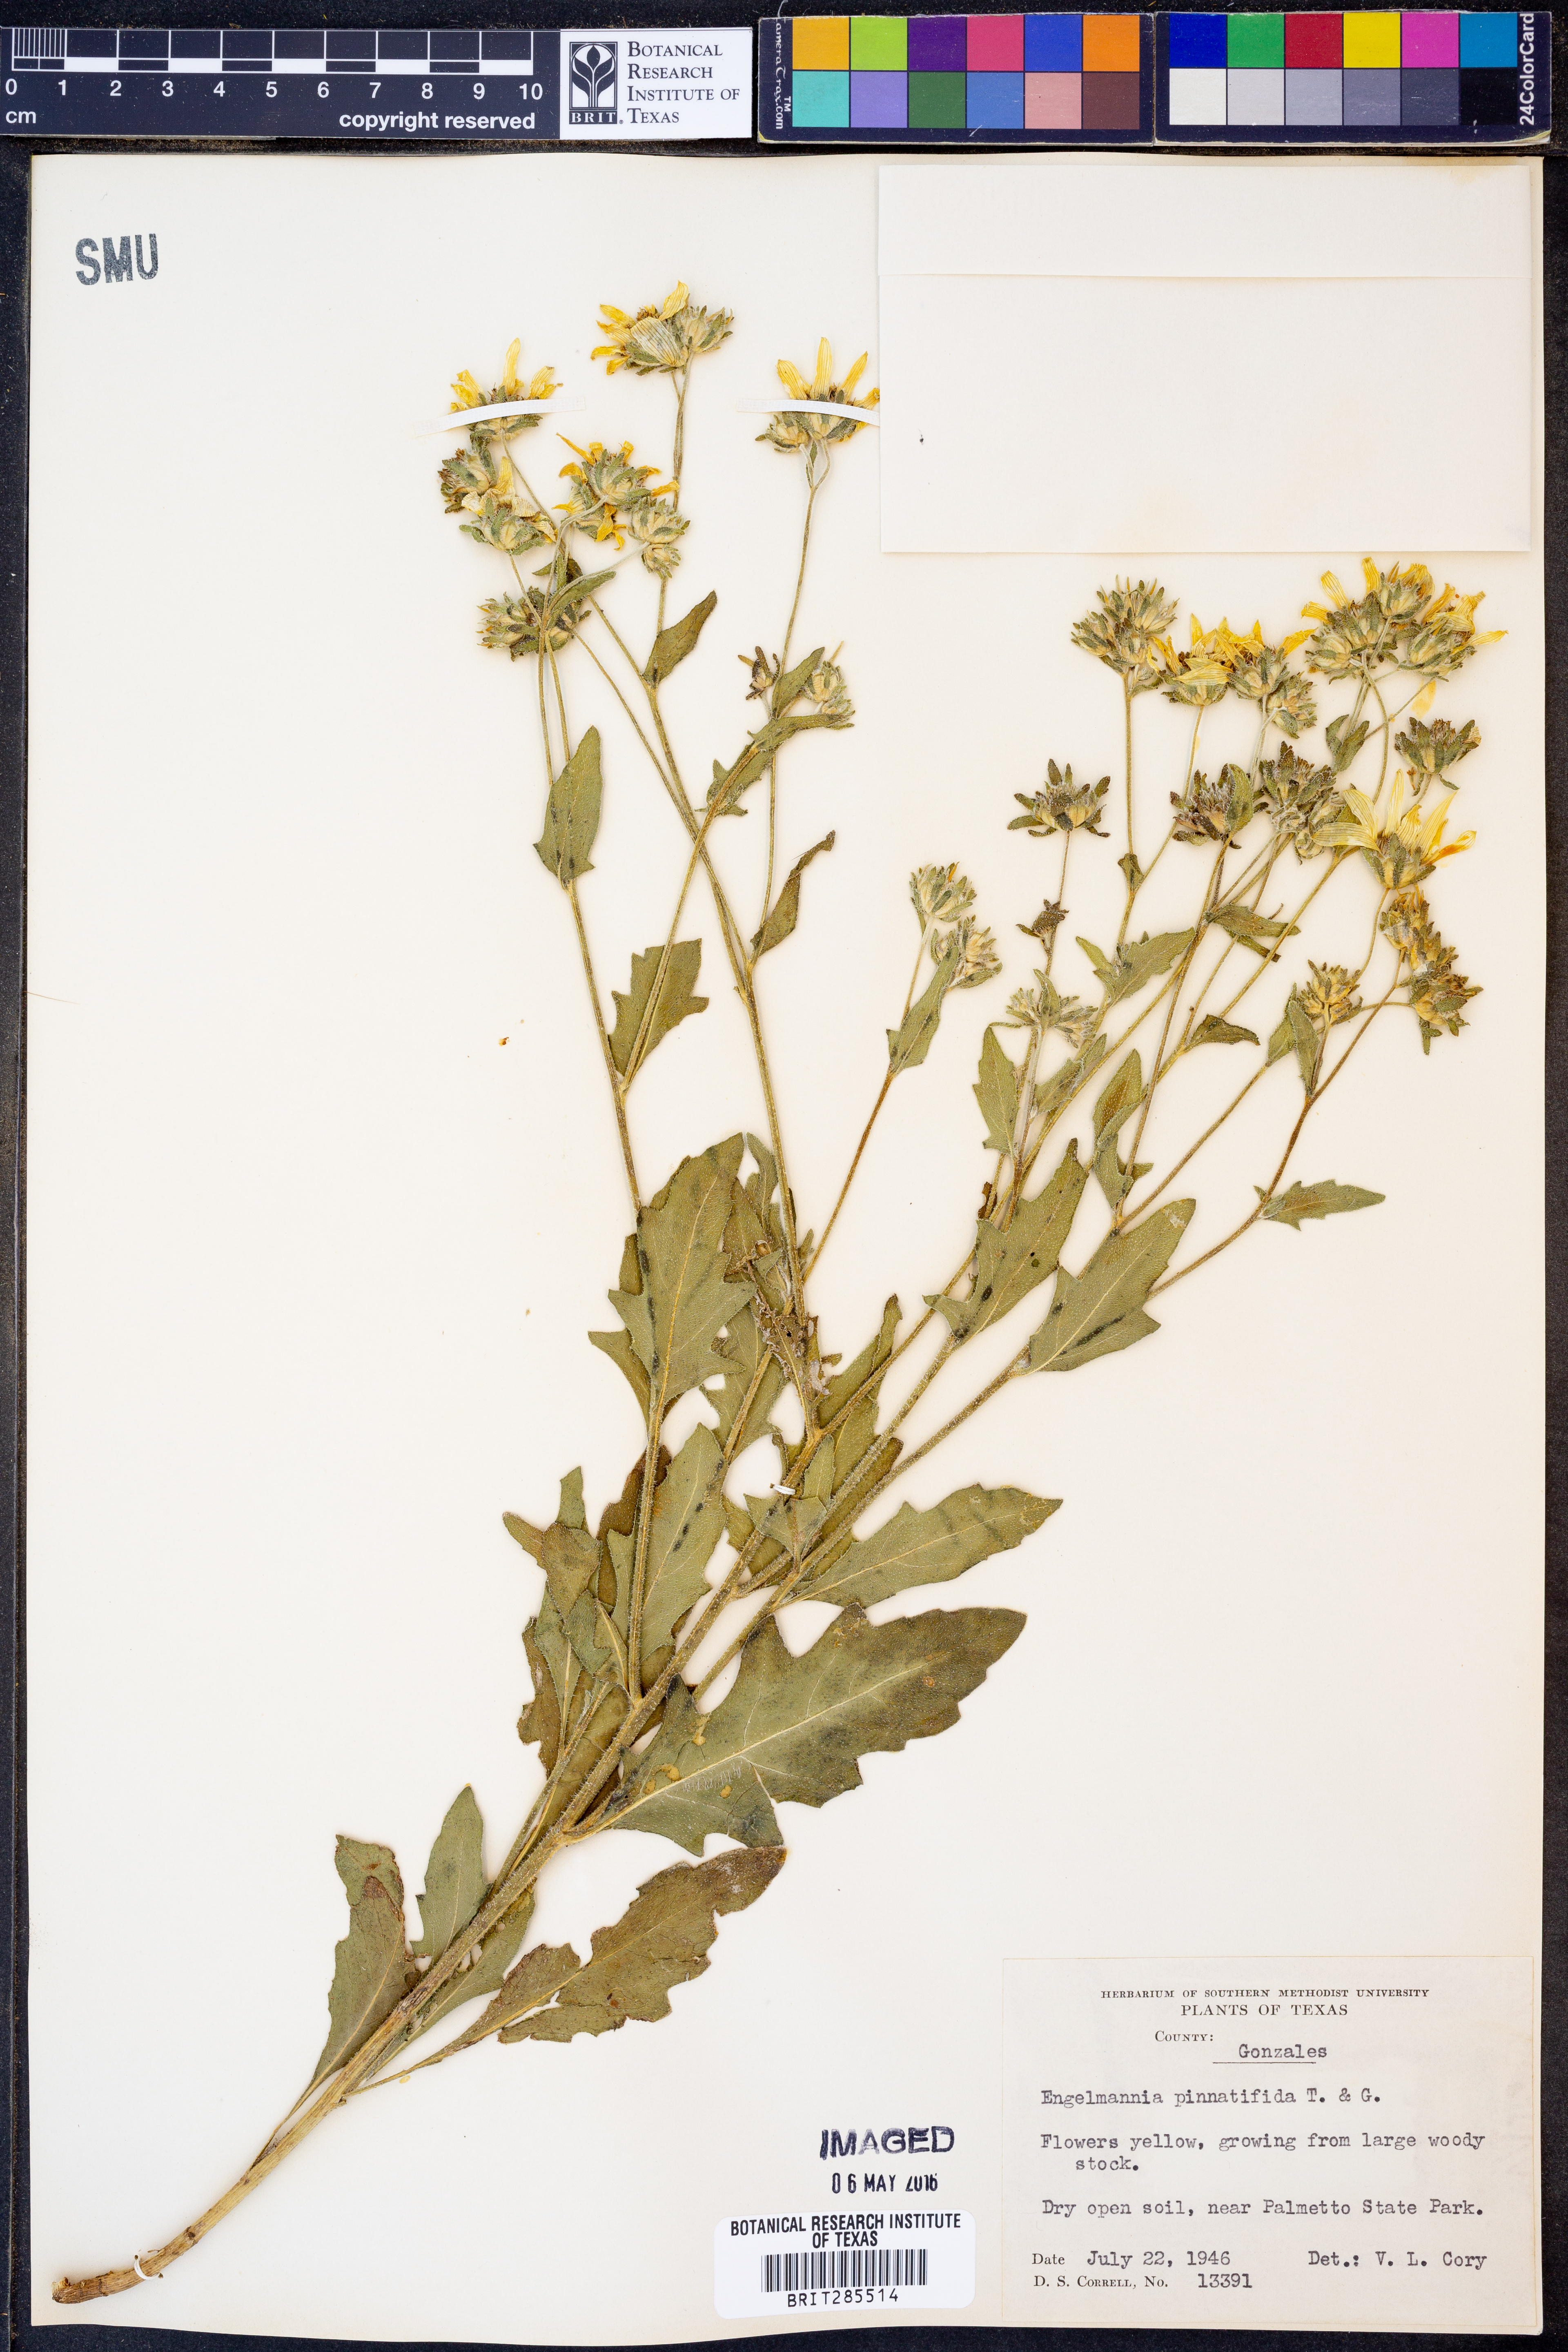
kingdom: Plantae
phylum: Tracheophyta
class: Magnoliopsida
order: Asterales
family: Asteraceae
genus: Engelmannia
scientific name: Engelmannia peristenia
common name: Engelmann's daisy
